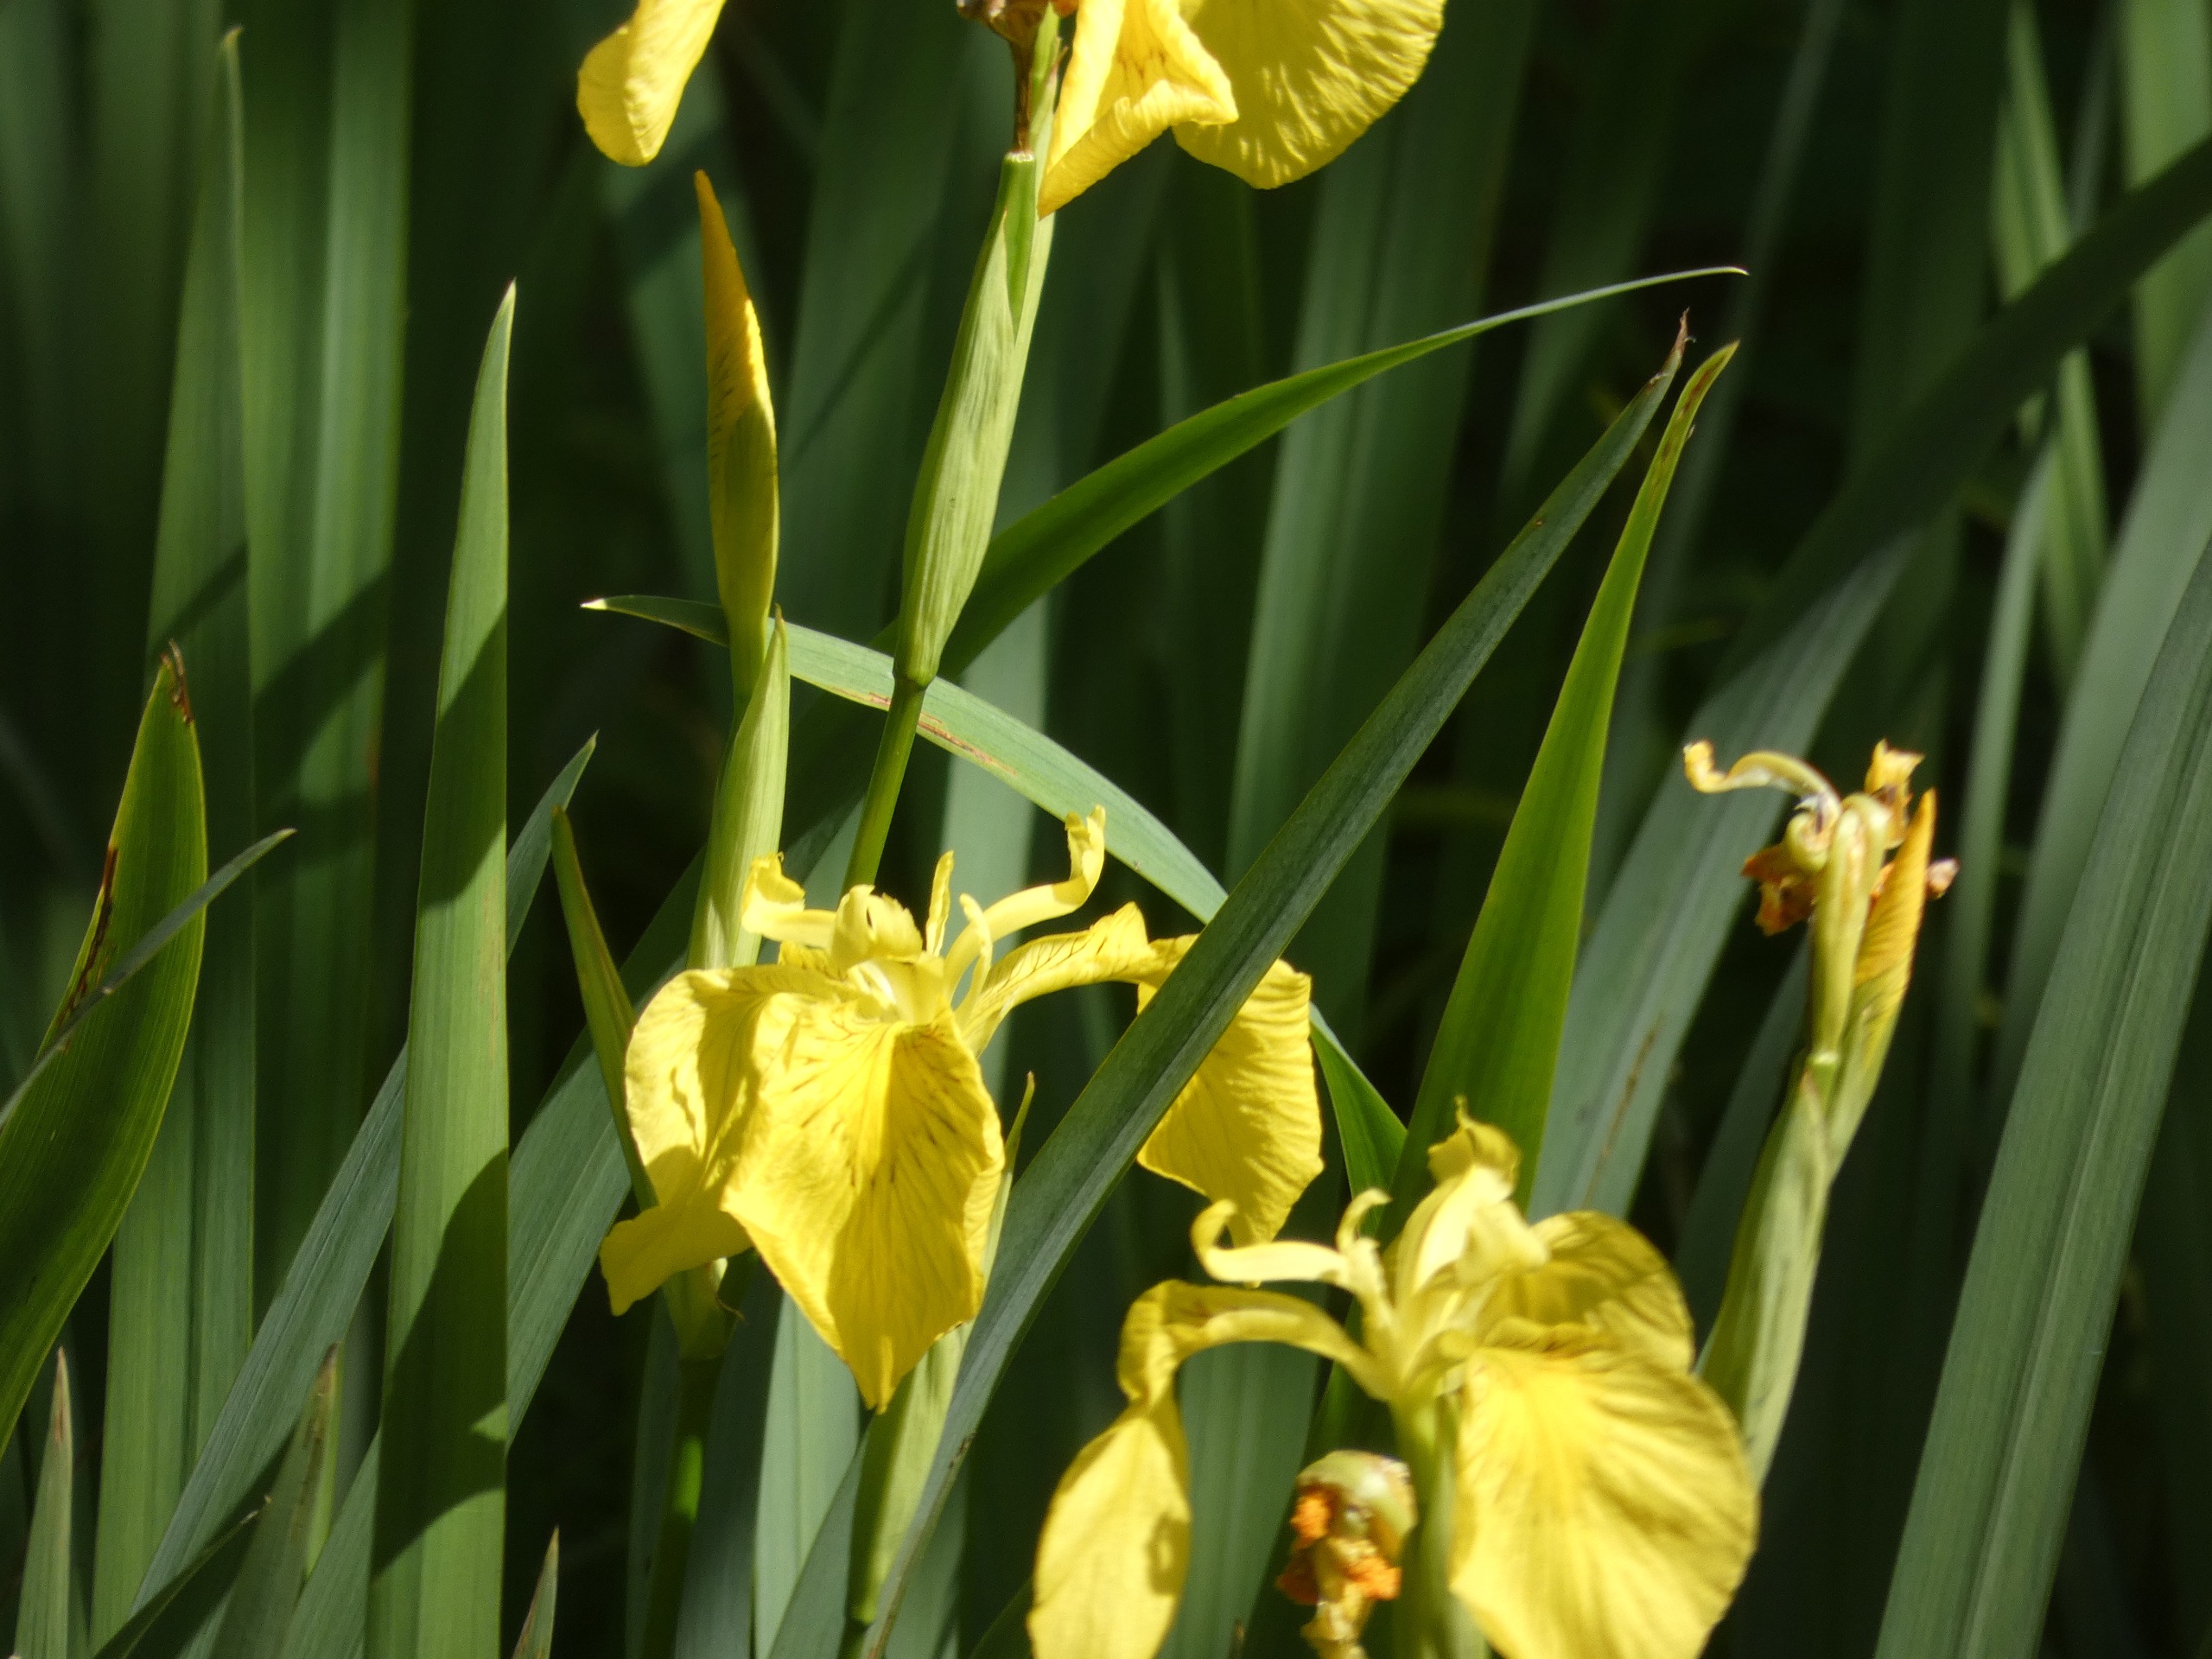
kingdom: Plantae
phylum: Tracheophyta
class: Liliopsida
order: Asparagales
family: Iridaceae
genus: Iris
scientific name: Iris pseudacorus
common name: Gul iris
